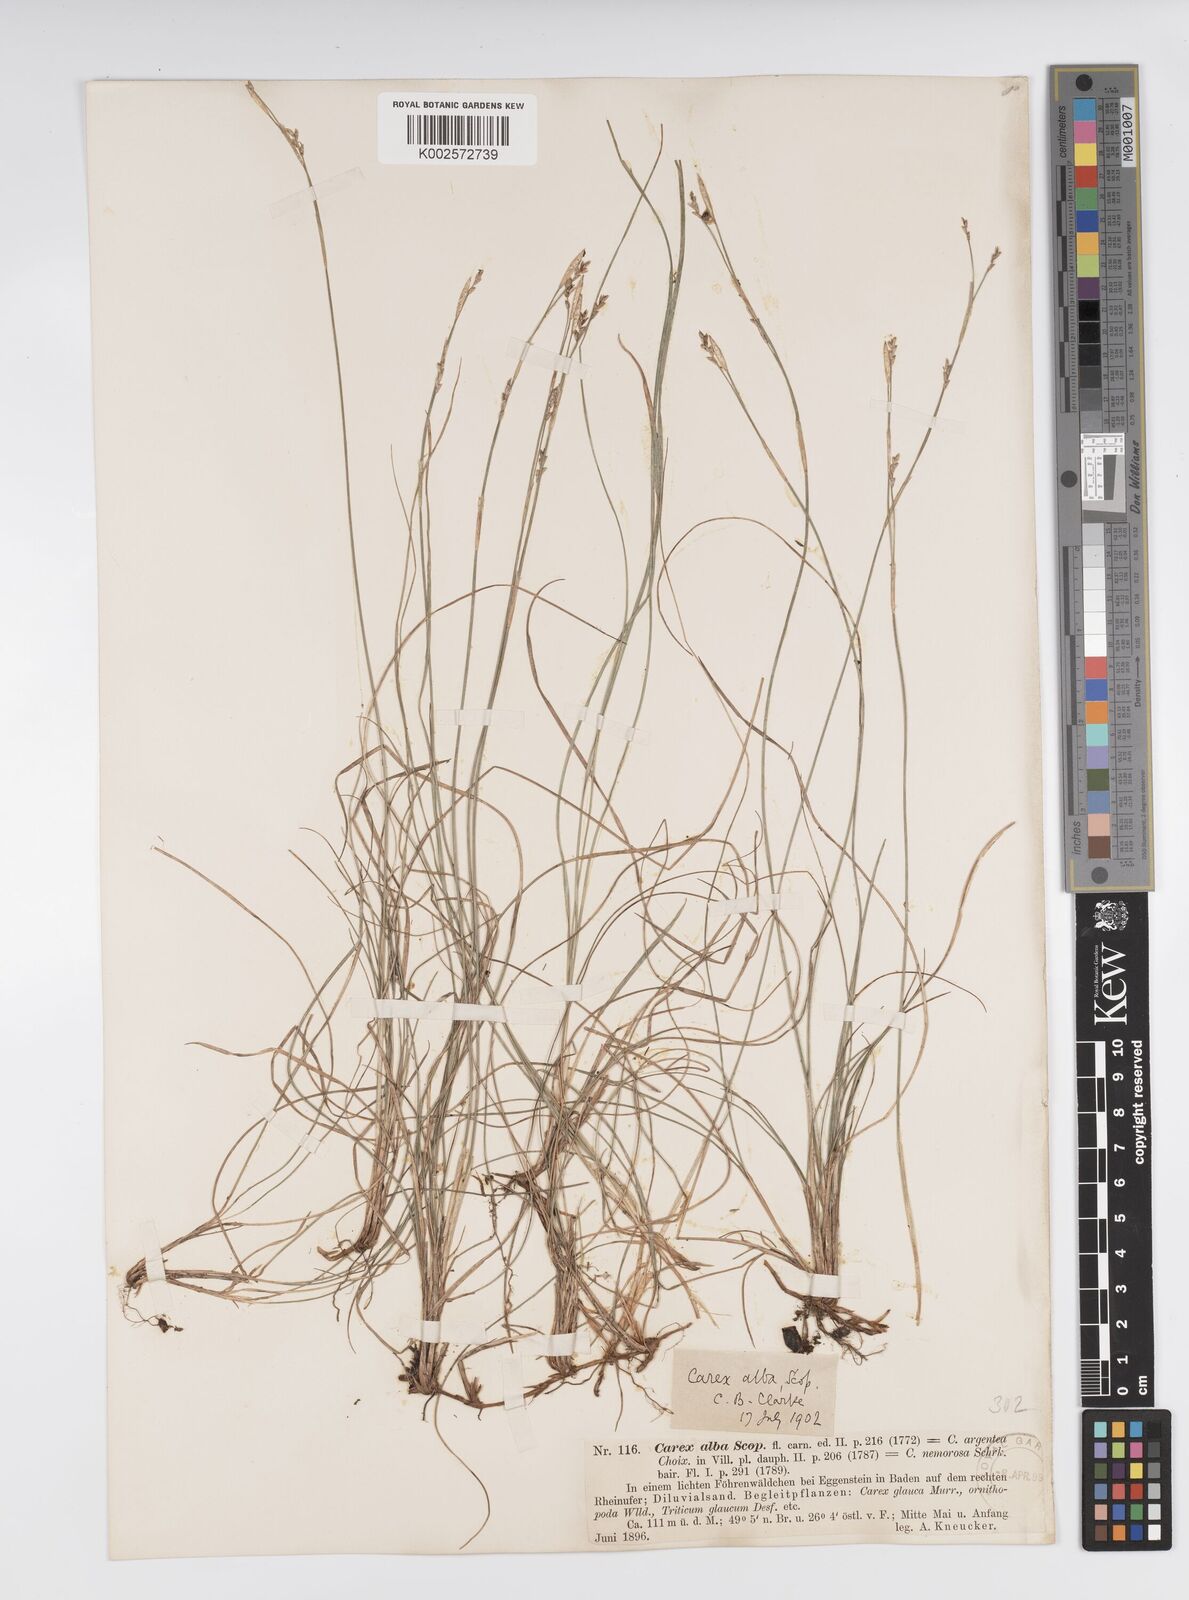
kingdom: Plantae
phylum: Tracheophyta
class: Liliopsida
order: Poales
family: Cyperaceae
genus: Carex
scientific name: Carex alba
